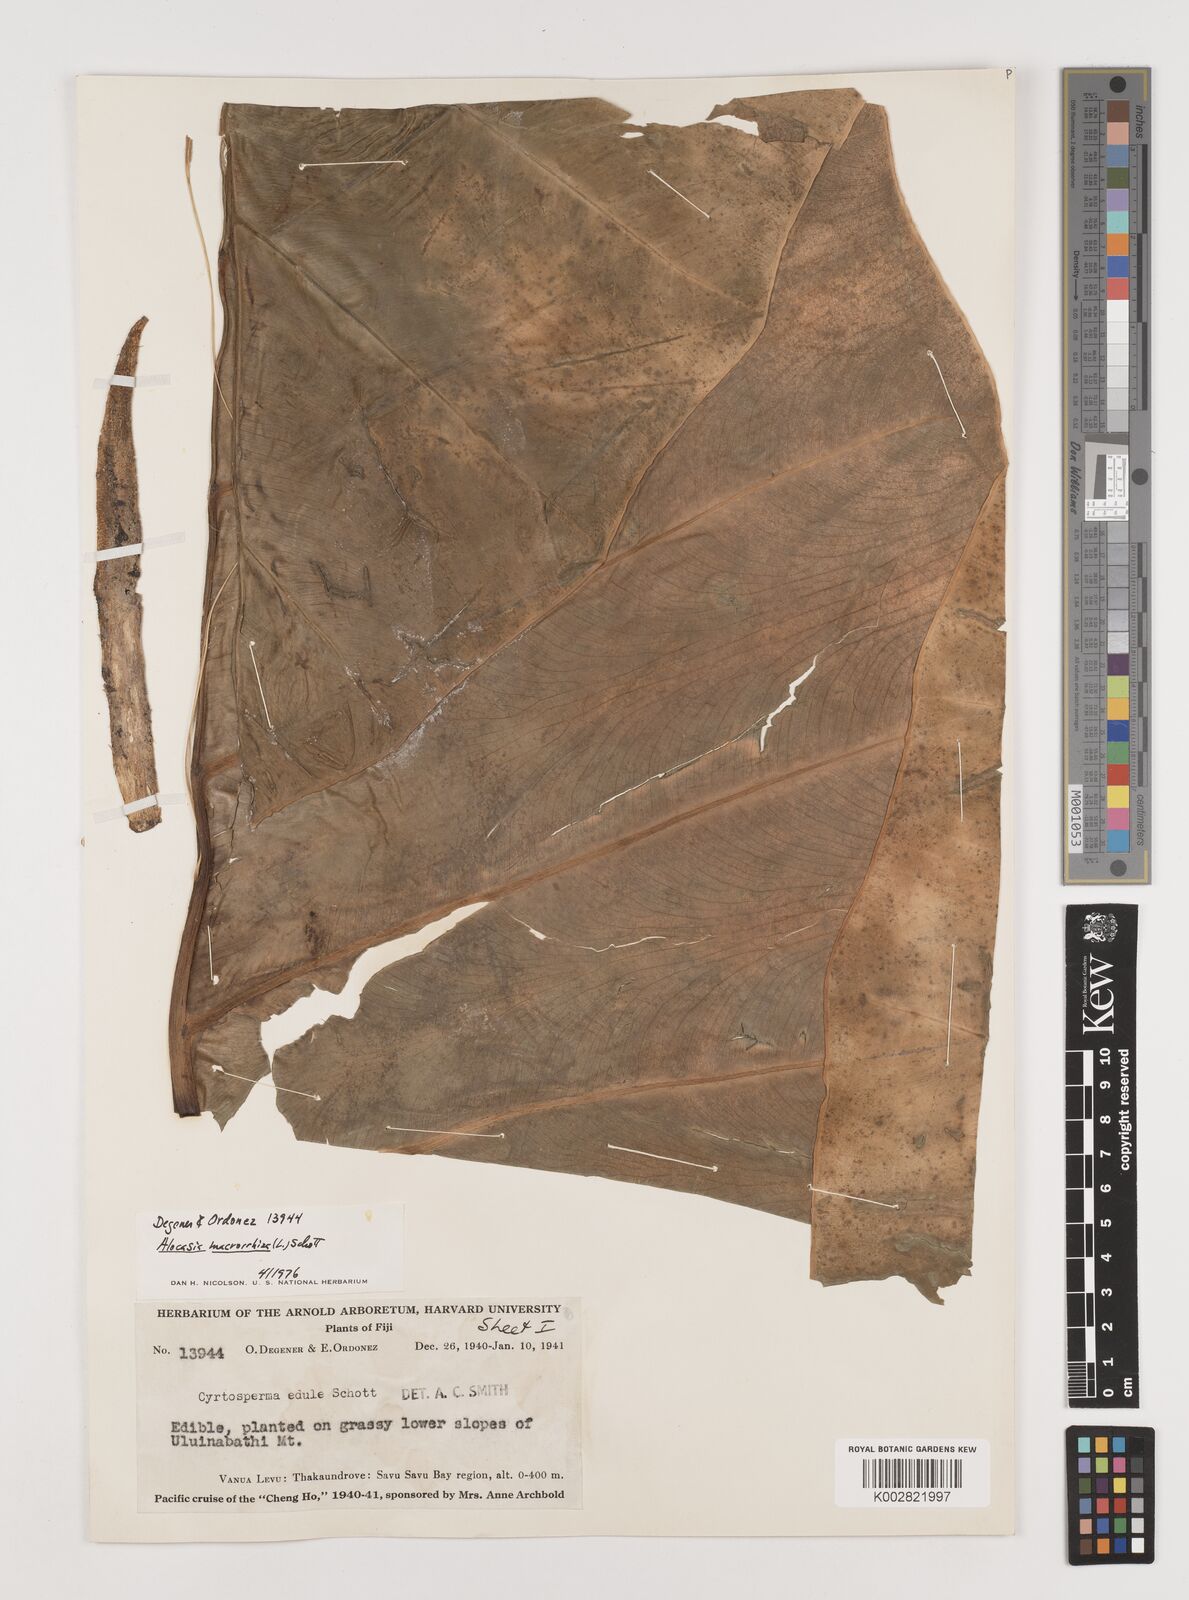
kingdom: Plantae
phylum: Tracheophyta
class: Liliopsida
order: Alismatales
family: Araceae
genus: Alocasia
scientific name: Alocasia indica
